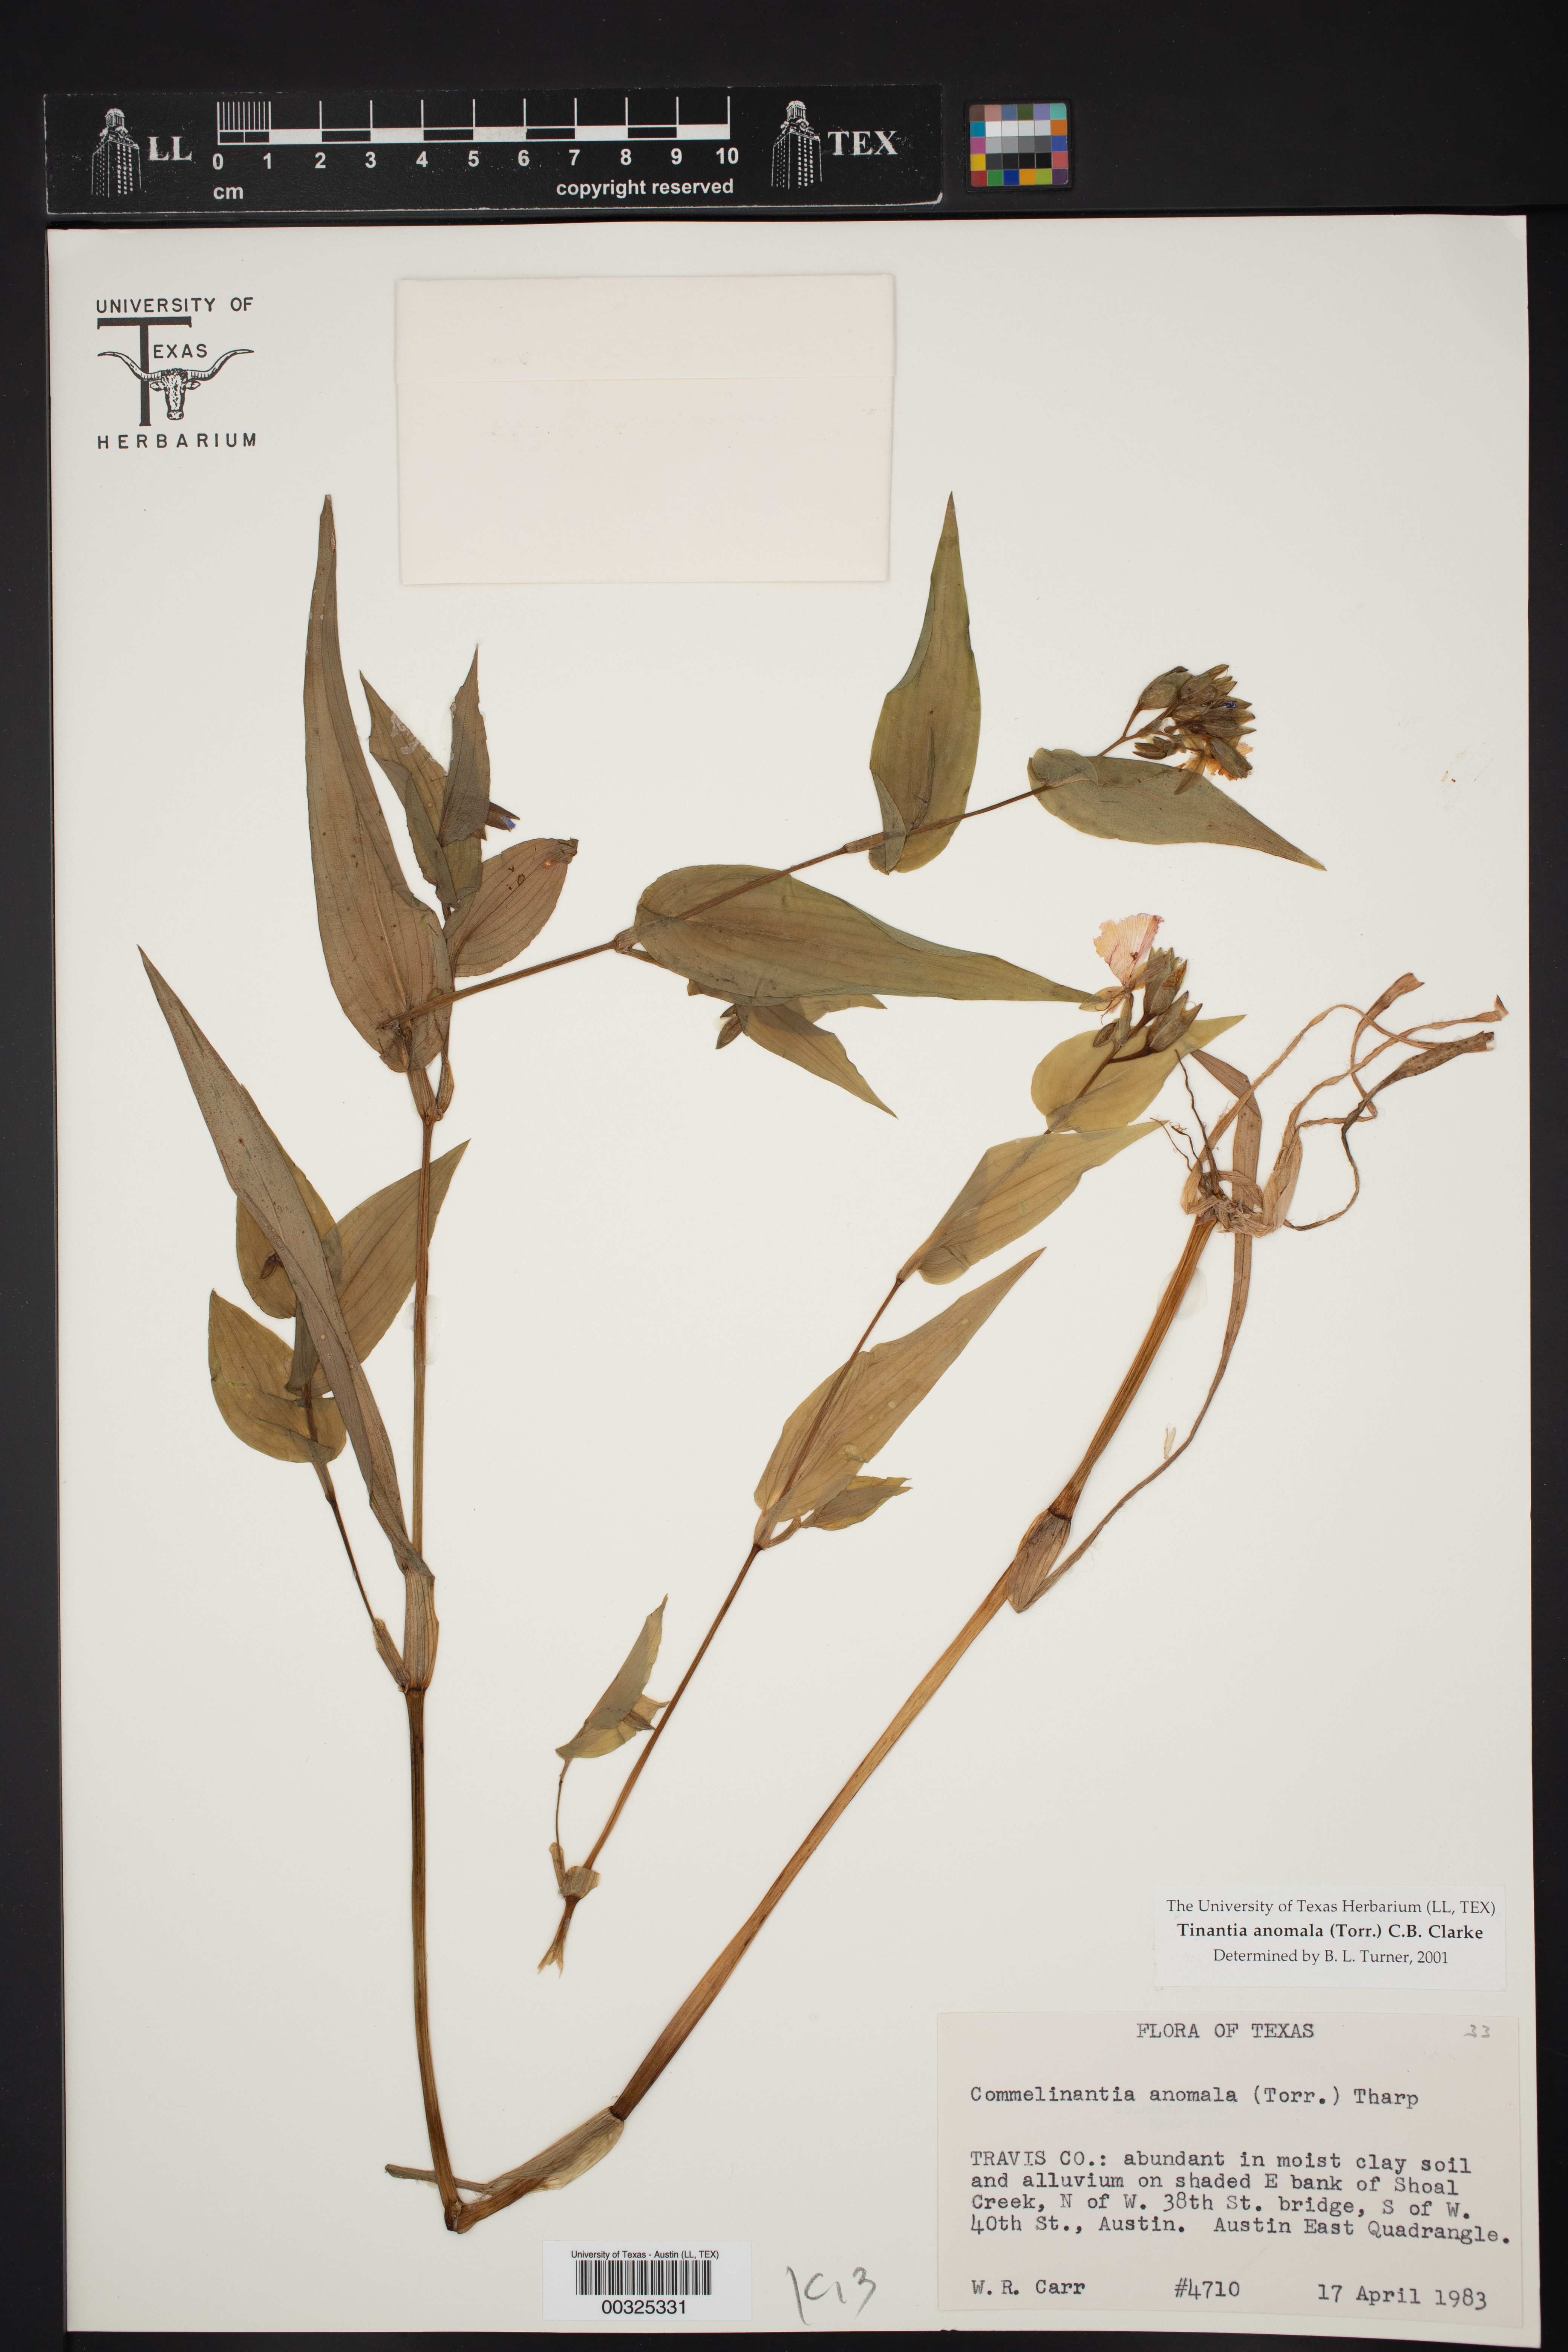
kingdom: Plantae
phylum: Tracheophyta
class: Liliopsida
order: Commelinales
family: Commelinaceae
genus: Tinantia
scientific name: Tinantia anomala
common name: False dayflower
